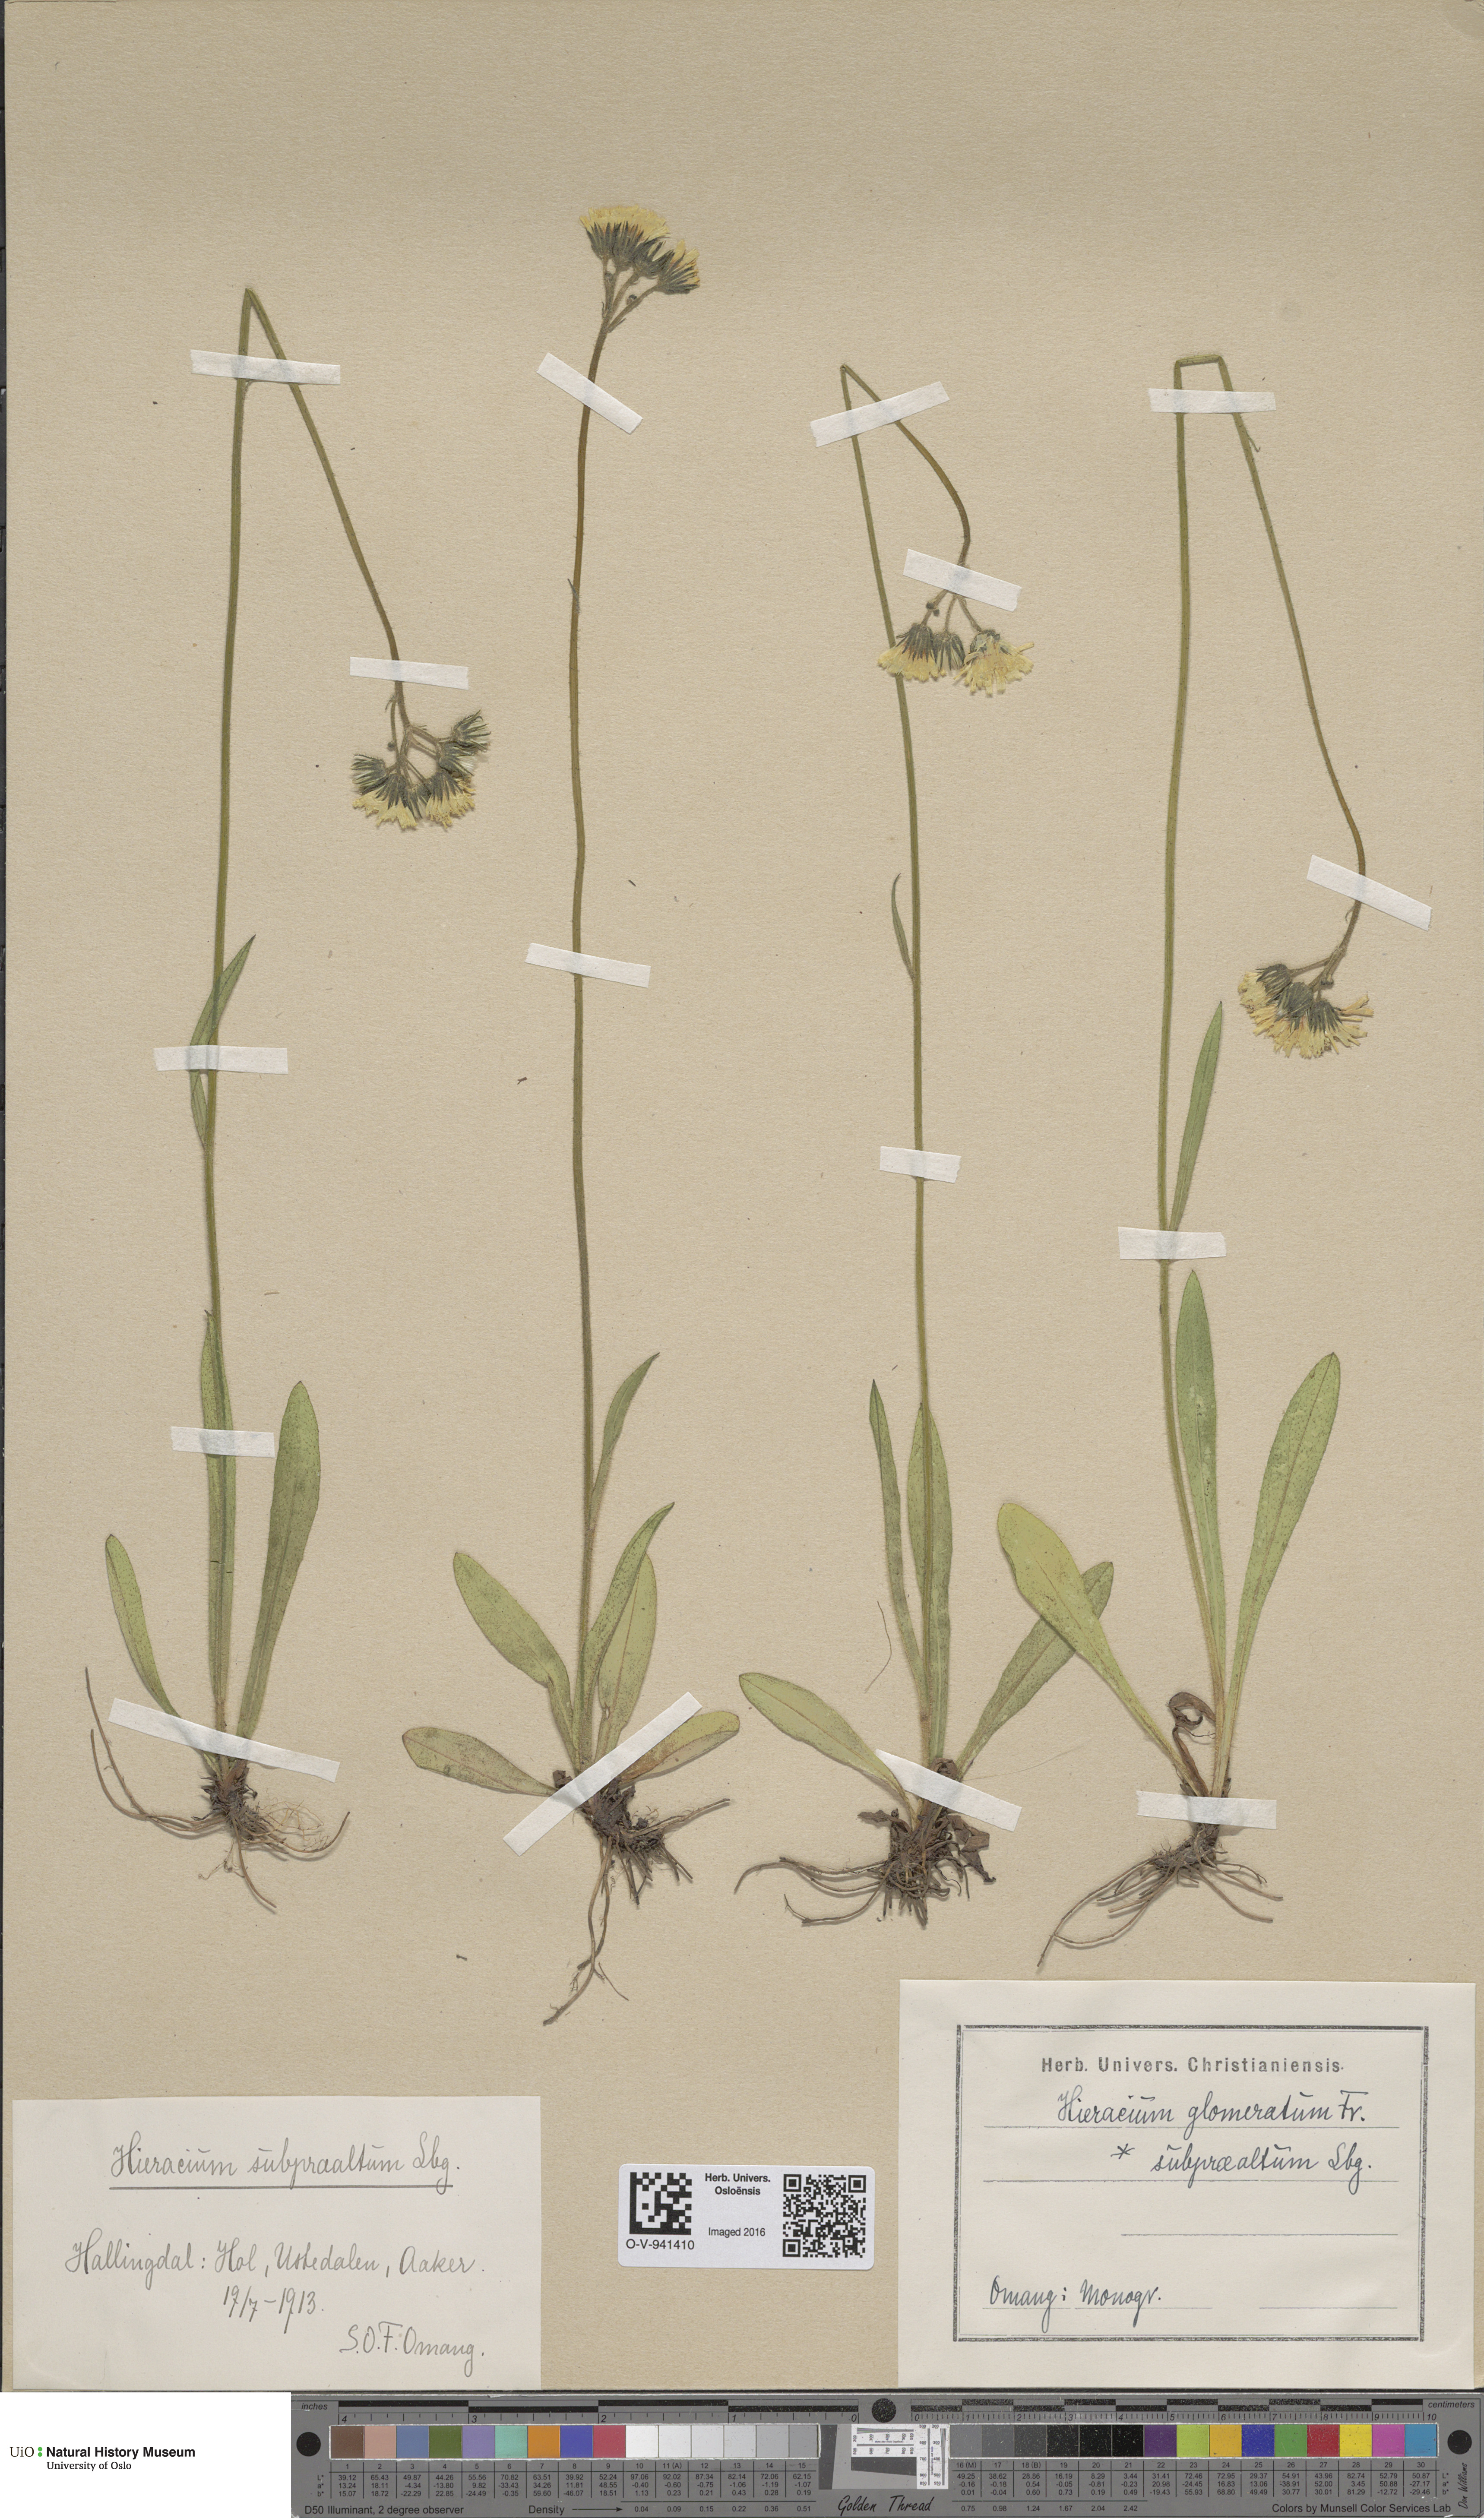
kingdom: Plantae
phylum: Tracheophyta
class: Magnoliopsida
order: Asterales
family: Asteraceae
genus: Pilosella
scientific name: Pilosella glomerata
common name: Queen devil hawkweed
